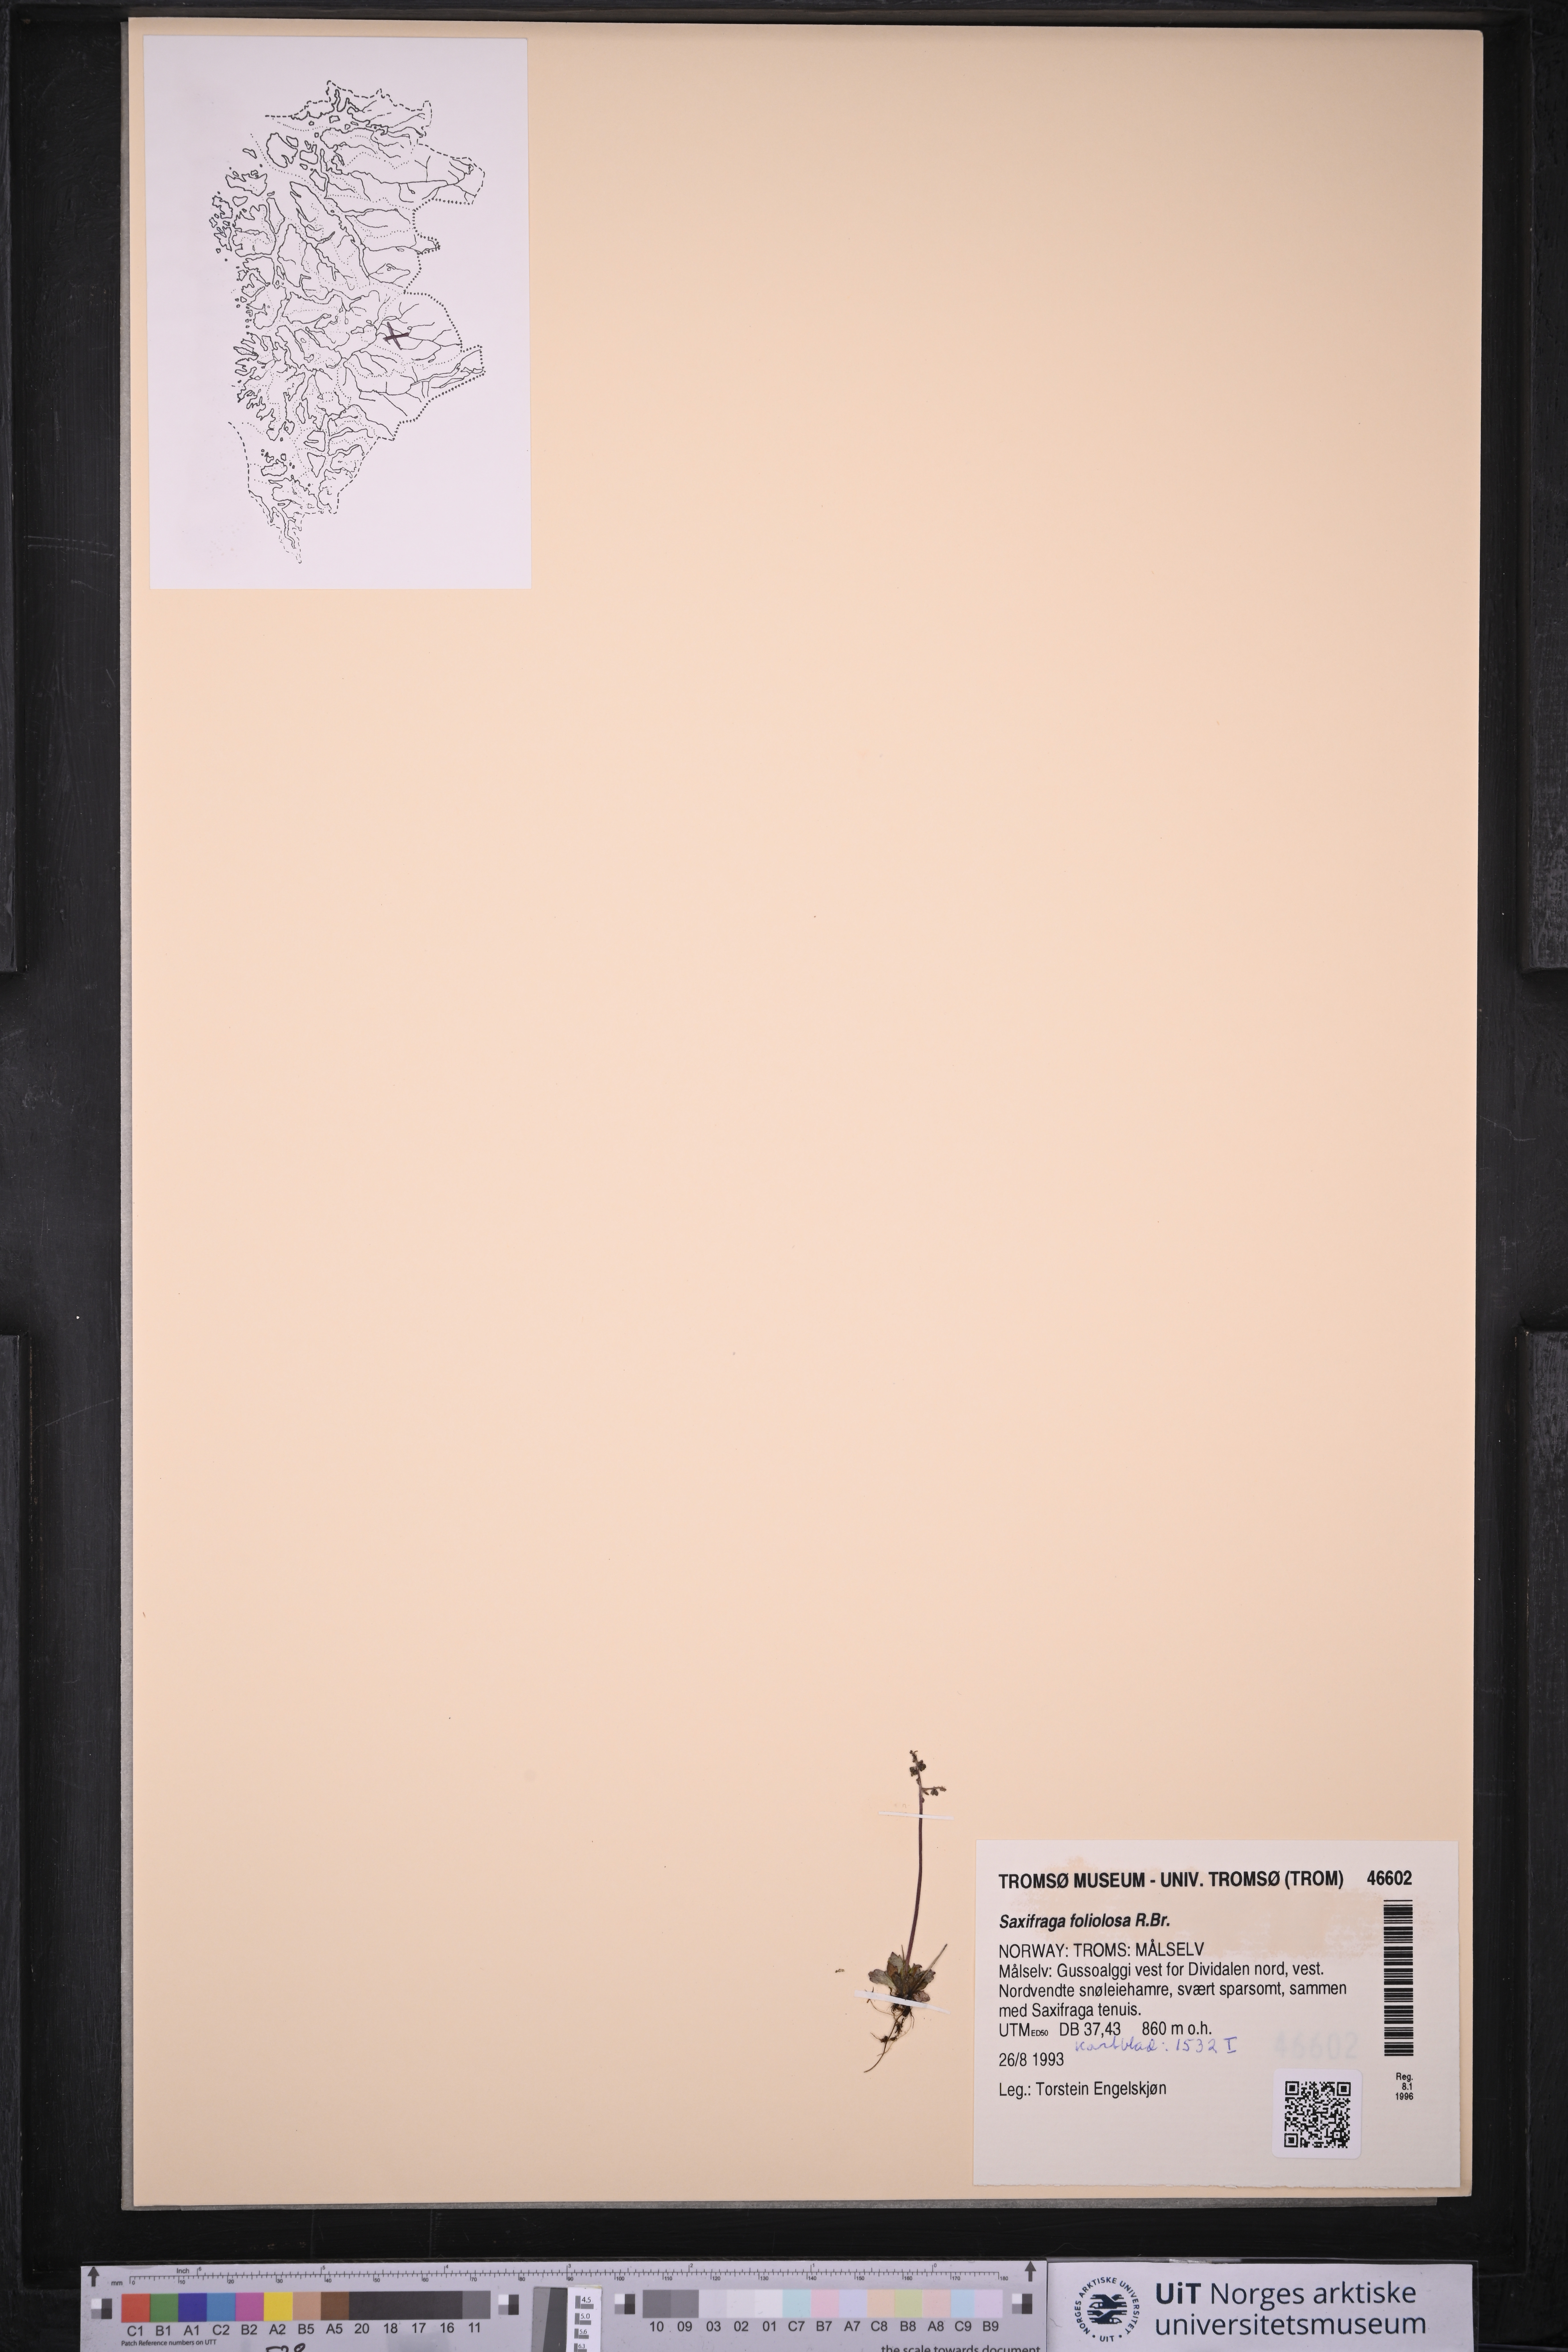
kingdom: Plantae
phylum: Tracheophyta
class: Magnoliopsida
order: Saxifragales
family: Saxifragaceae
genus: Micranthes
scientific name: Micranthes foliolosa
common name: Leafystem saxifrage
